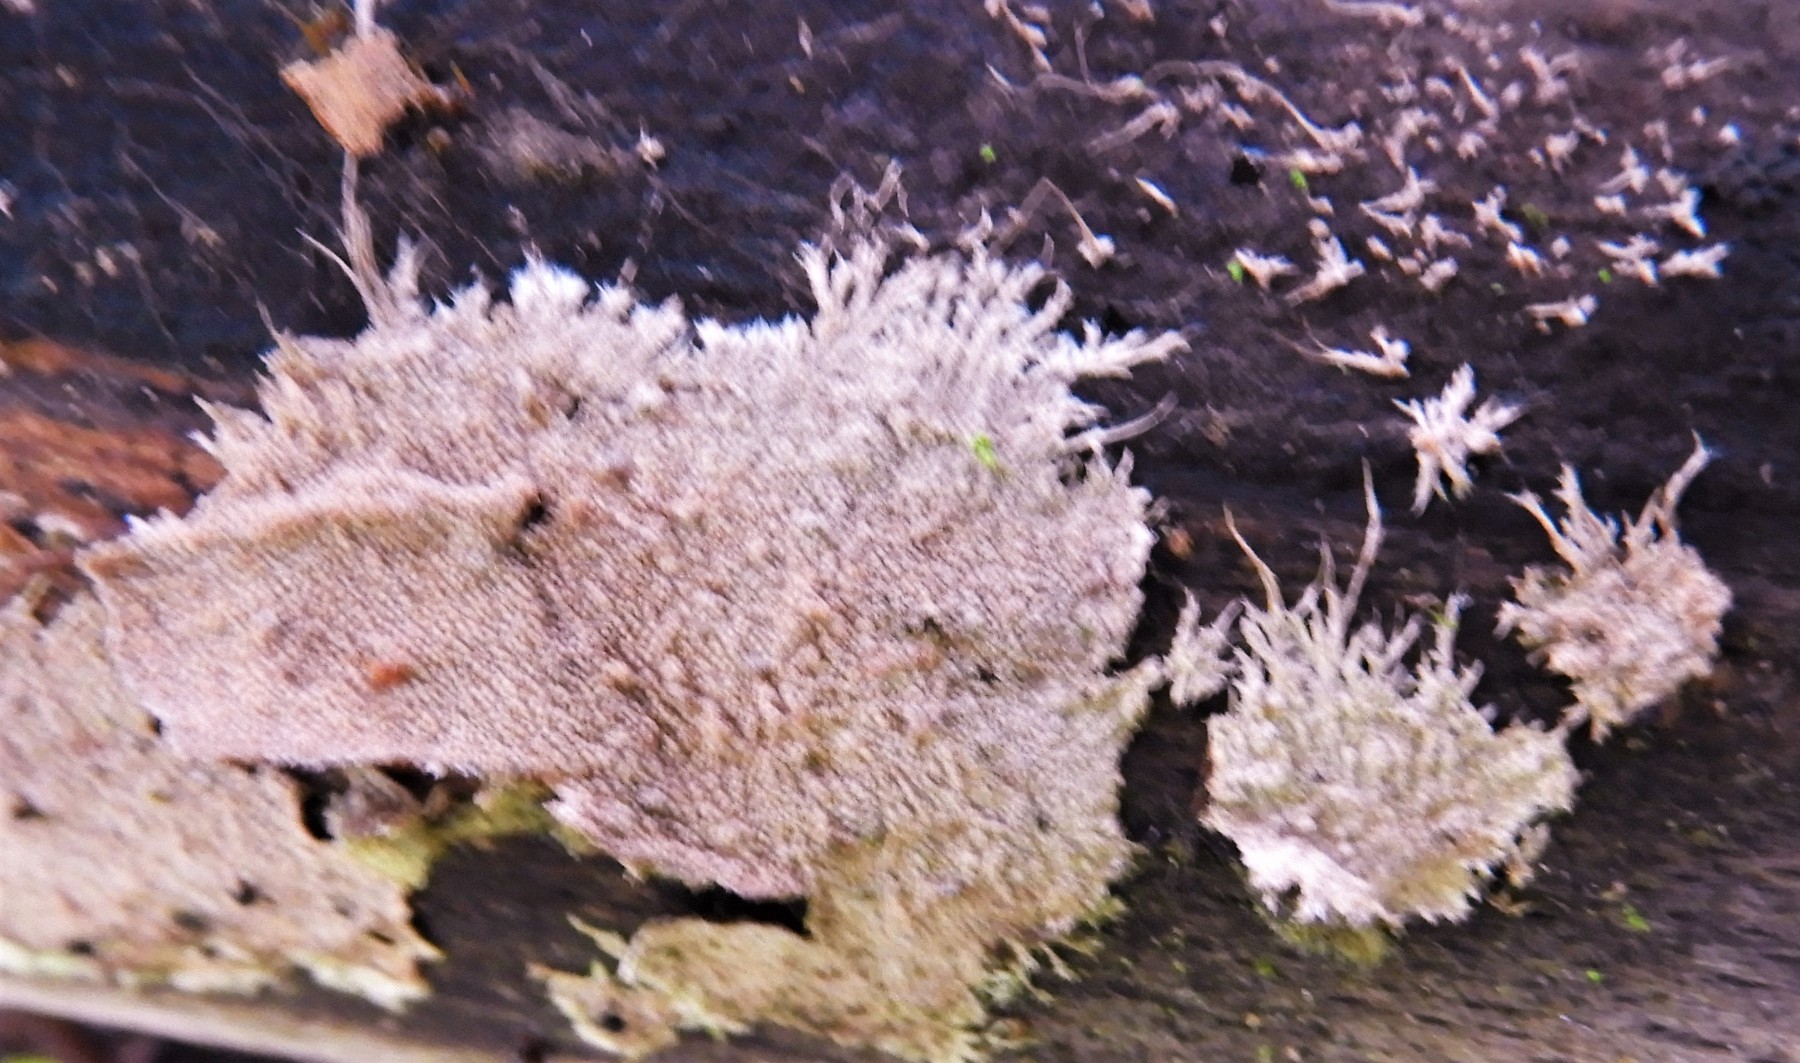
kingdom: Fungi
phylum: Basidiomycota
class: Agaricomycetes
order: Polyporales
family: Steccherinaceae
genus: Steccherinum
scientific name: Steccherinum fimbriatum
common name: trådet skønpig
